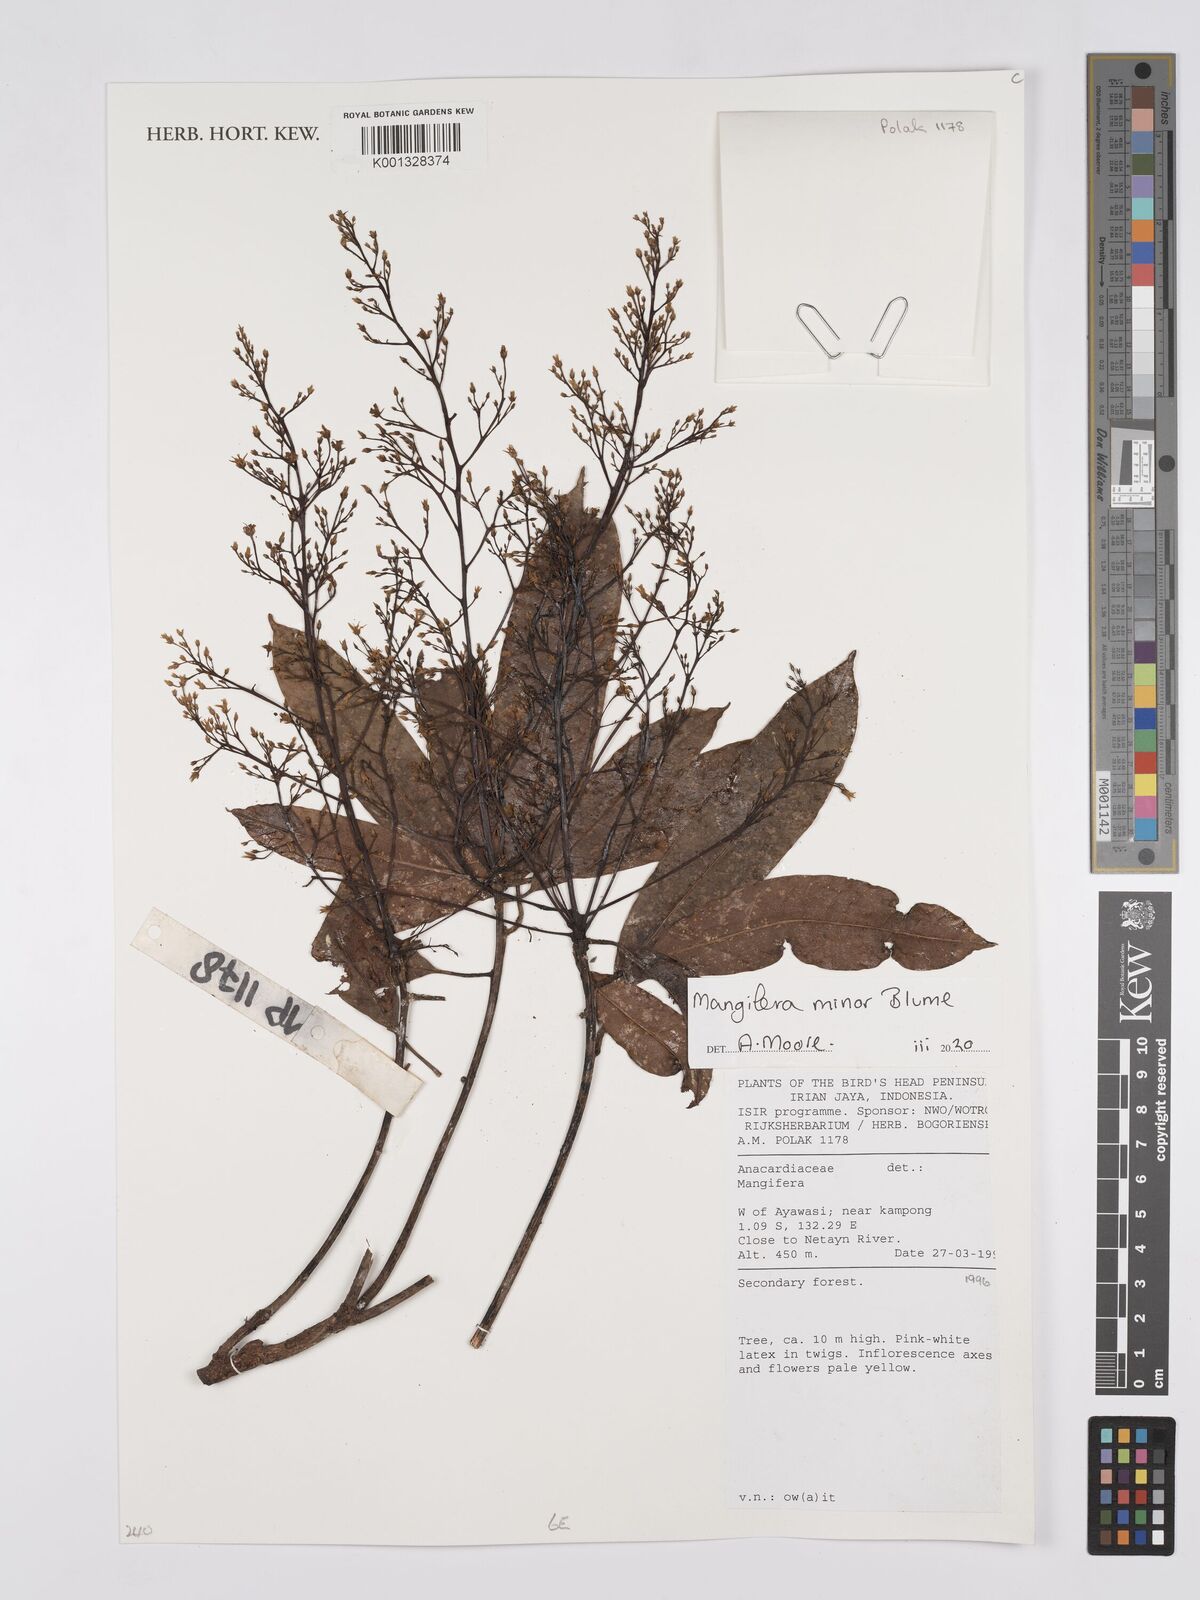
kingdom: Plantae
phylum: Tracheophyta
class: Magnoliopsida
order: Sapindales
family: Anacardiaceae
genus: Mangifera
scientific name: Mangifera minor
